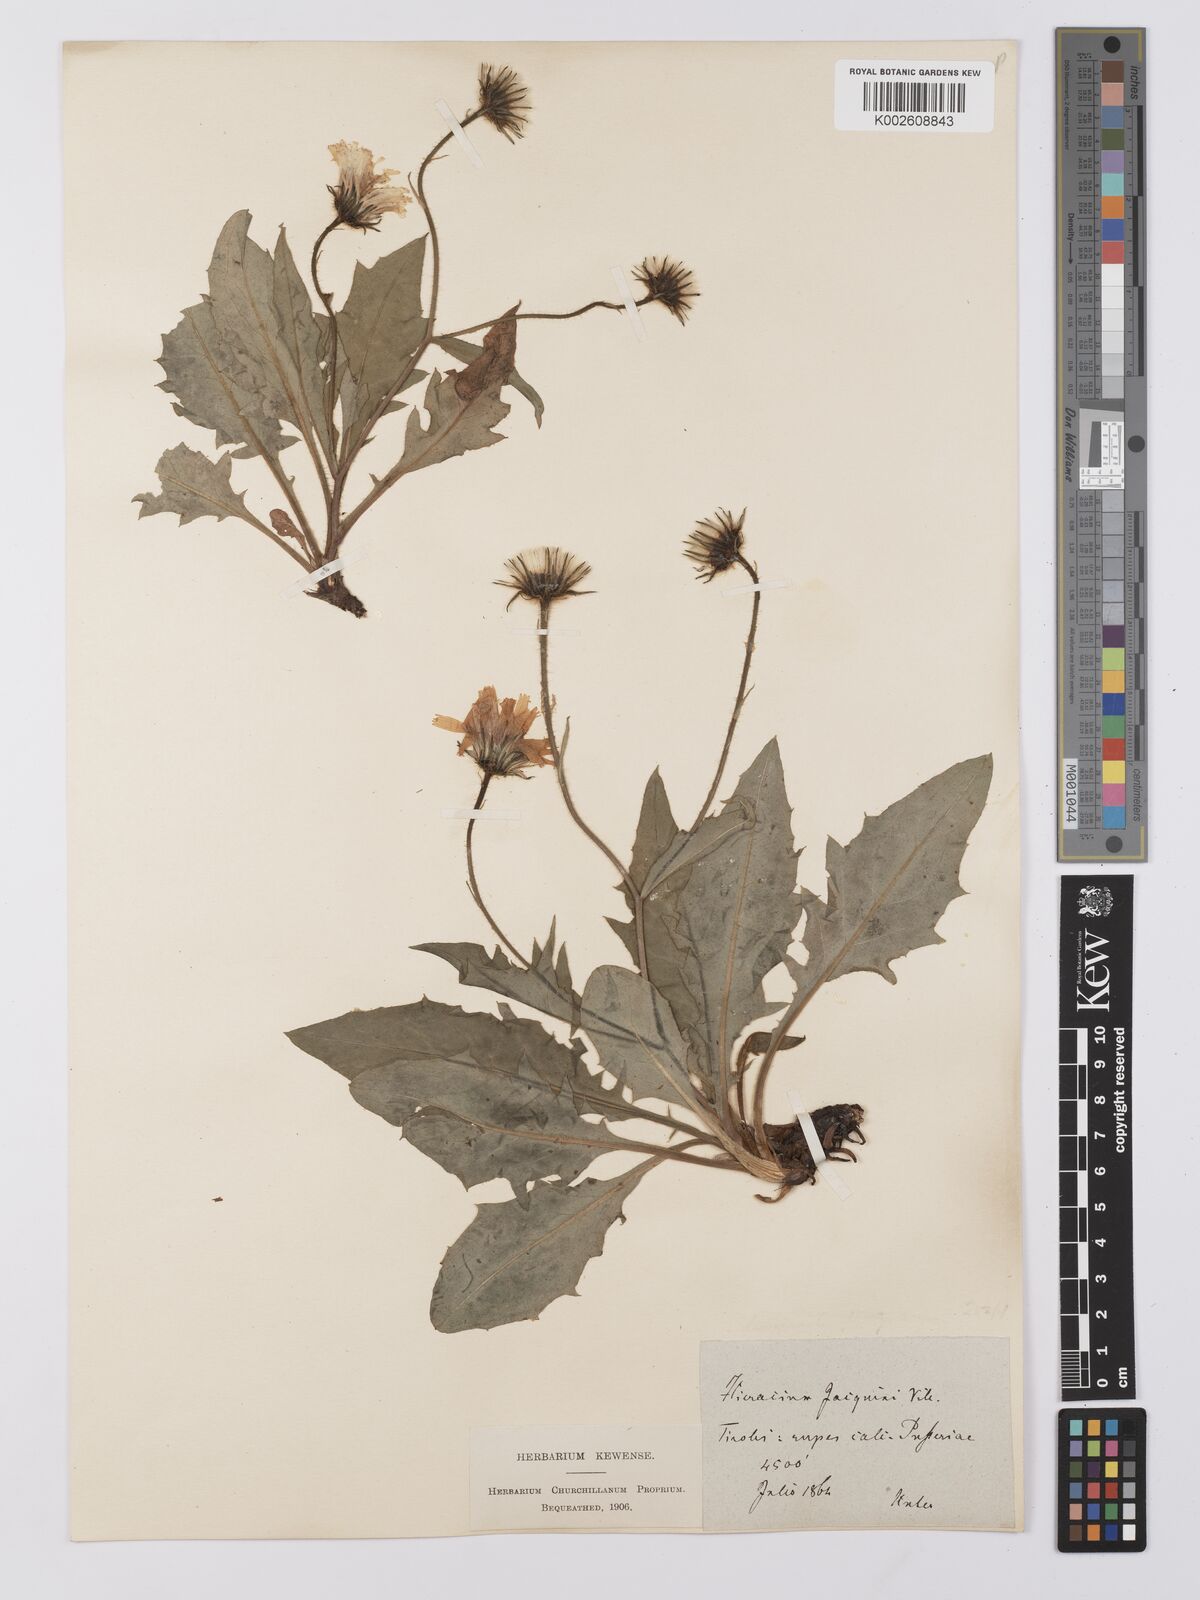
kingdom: Plantae
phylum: Tracheophyta
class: Magnoliopsida
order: Asterales
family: Asteraceae
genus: Hieracium
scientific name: Hieracium balbisianum
